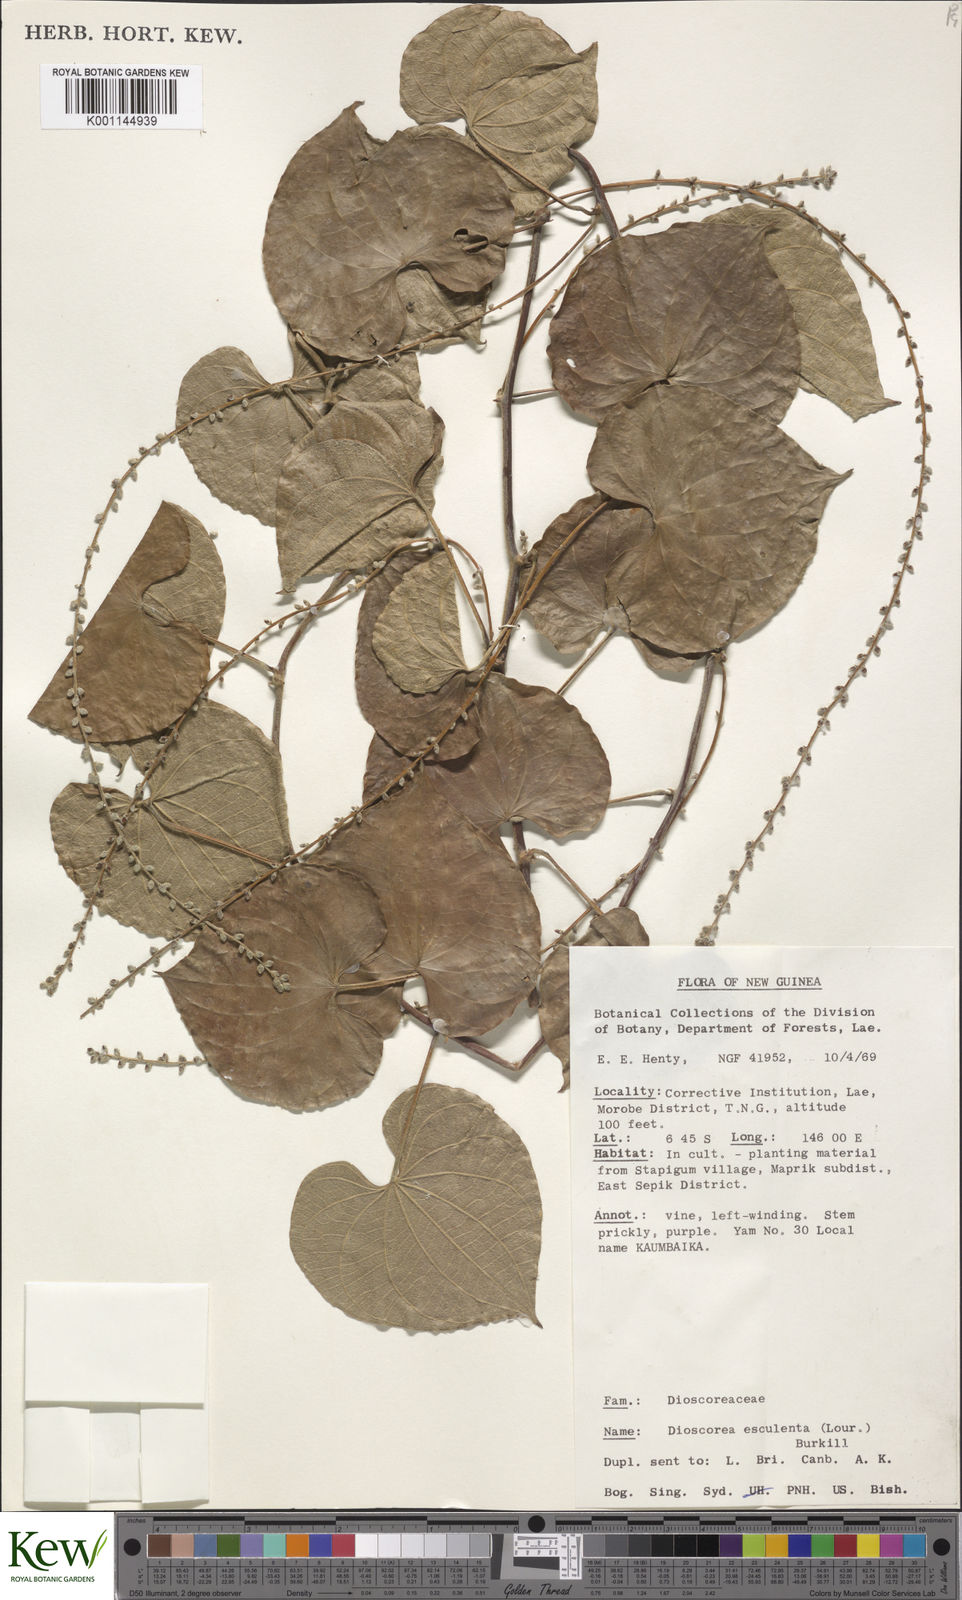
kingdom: Plantae
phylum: Tracheophyta
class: Liliopsida
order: Dioscoreales
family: Dioscoreaceae
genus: Dioscorea
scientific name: Dioscorea esculenta
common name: Chinese yam
